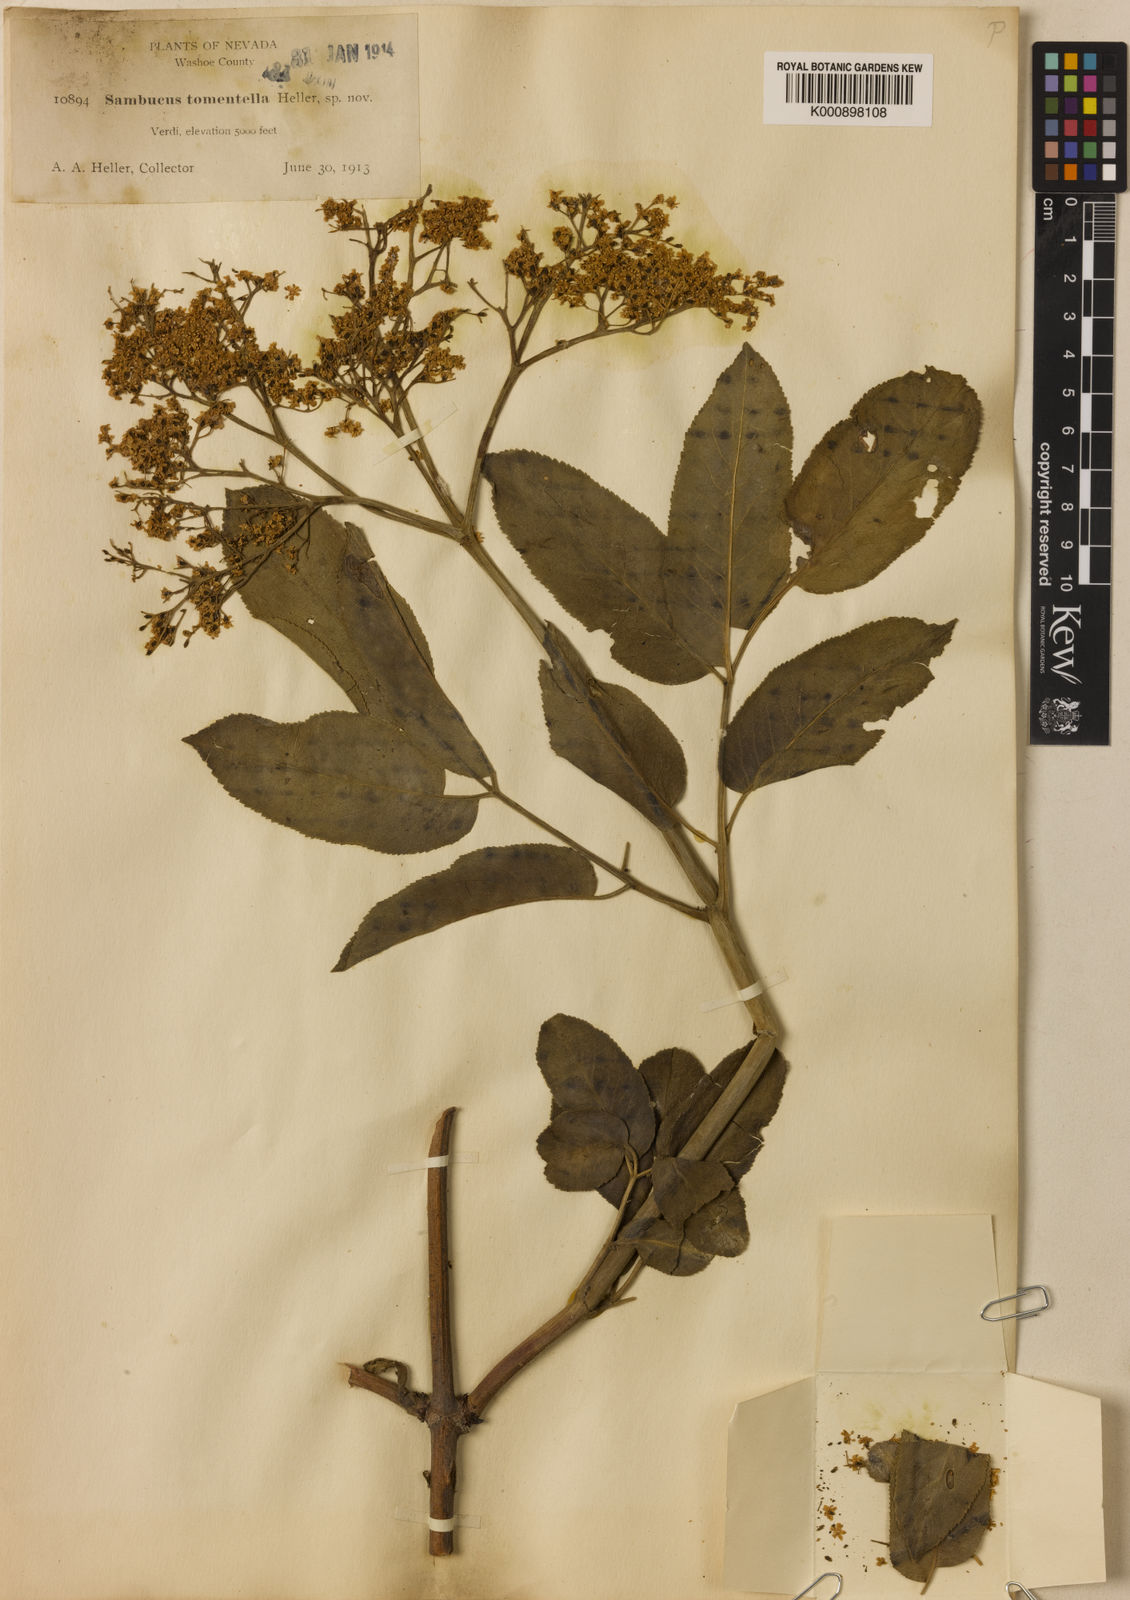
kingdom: Plantae
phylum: Tracheophyta
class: Magnoliopsida
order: Dipsacales
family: Viburnaceae
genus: Sambucus
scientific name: Sambucus
